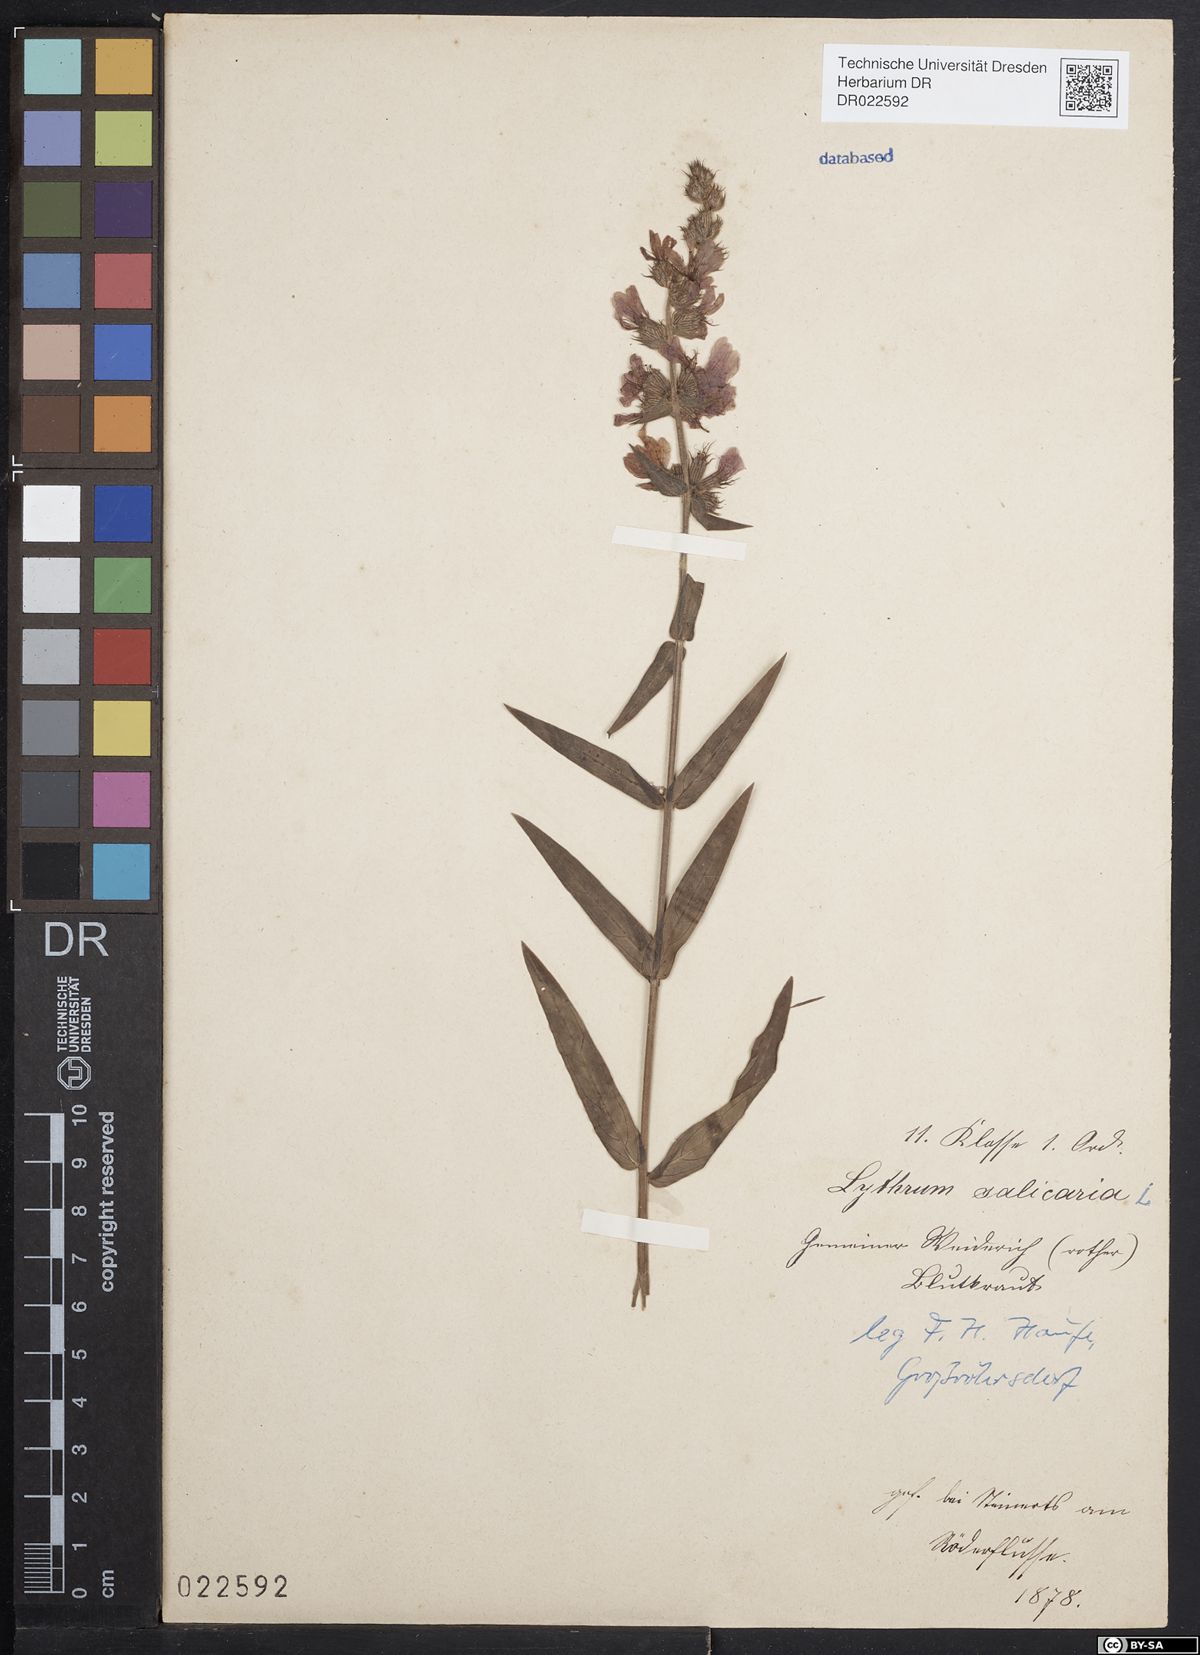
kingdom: Plantae
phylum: Tracheophyta
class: Magnoliopsida
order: Myrtales
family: Lythraceae
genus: Lythrum
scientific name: Lythrum salicaria
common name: Purple loosestrife
